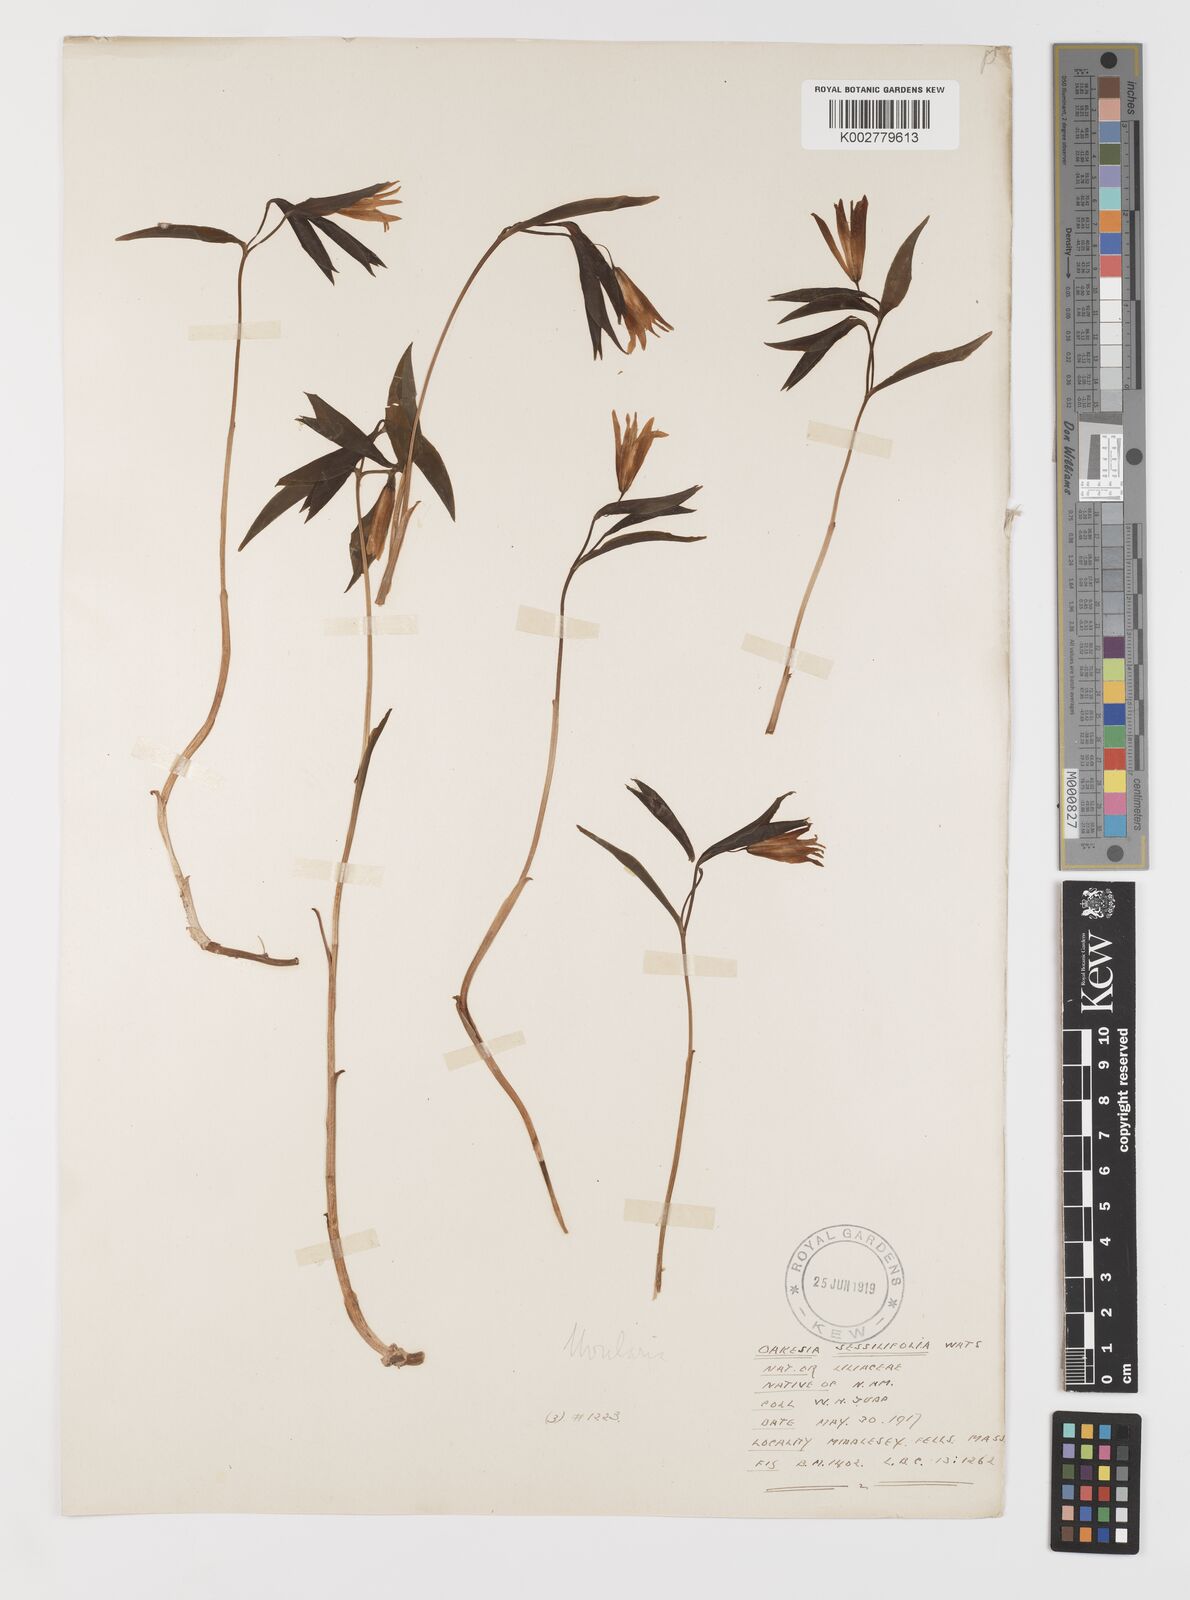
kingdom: Plantae
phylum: Tracheophyta
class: Liliopsida
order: Liliales
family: Colchicaceae
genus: Uvularia
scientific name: Uvularia sessilifolia
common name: Straw-lily
